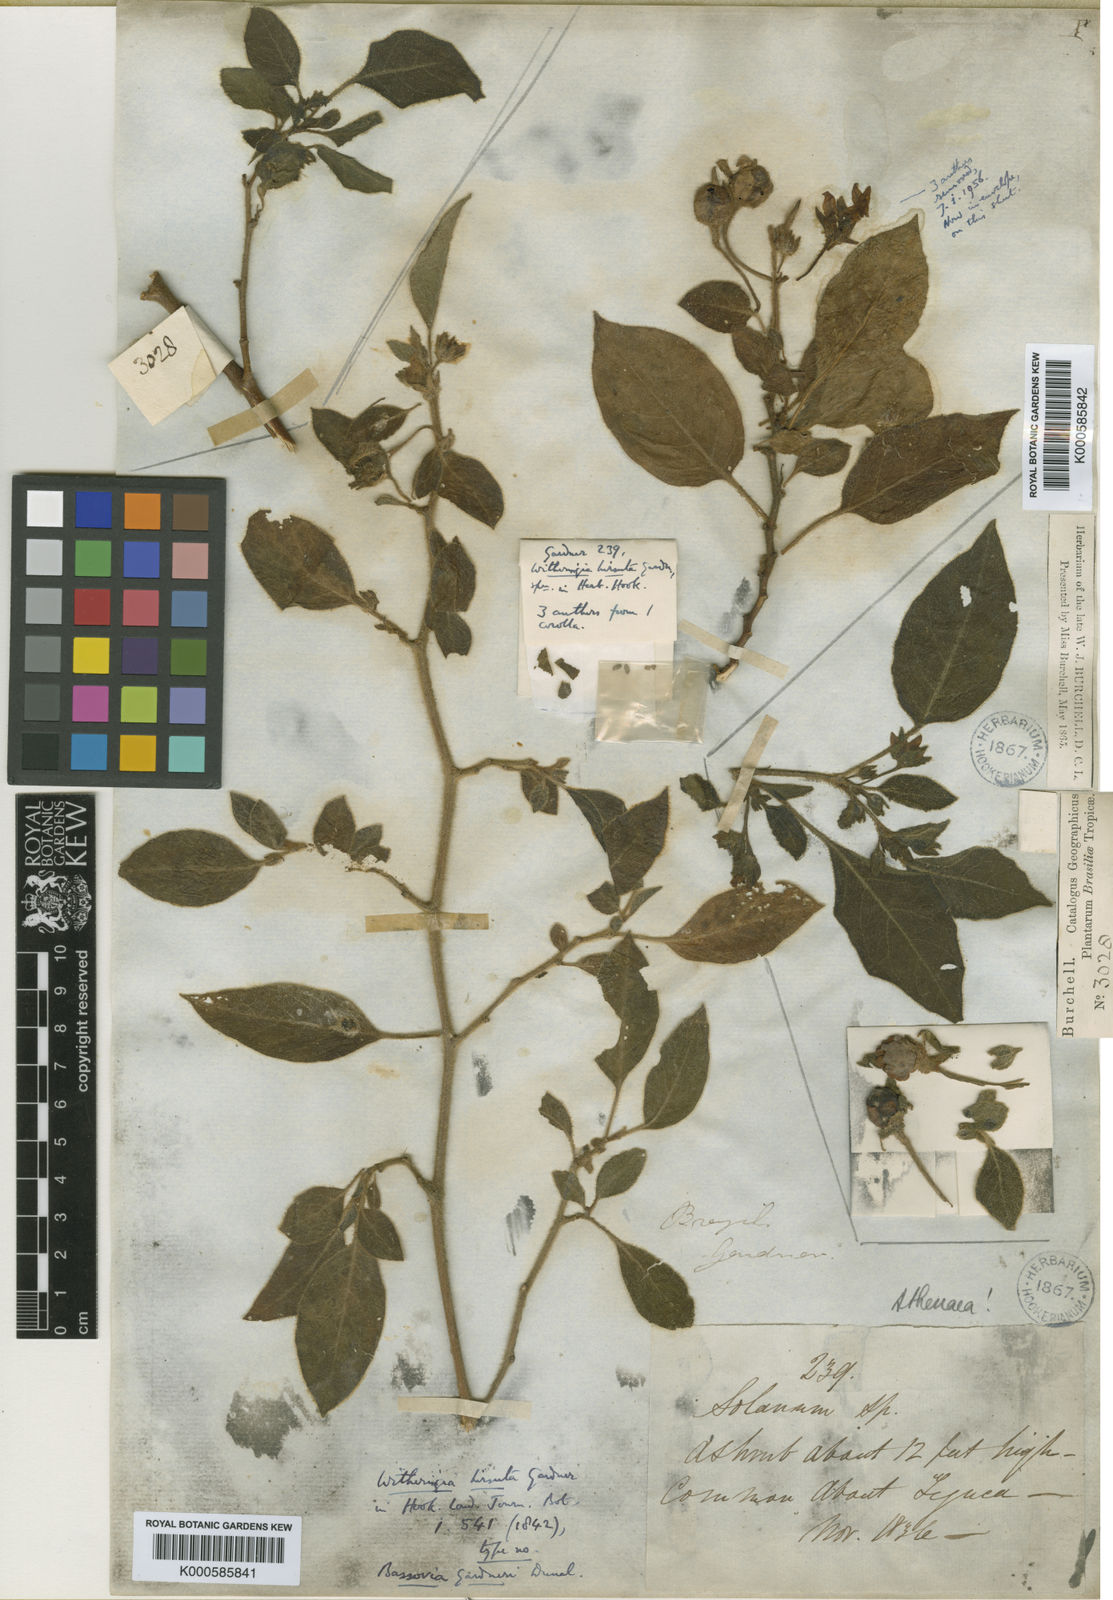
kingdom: Plantae
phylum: Tracheophyta
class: Magnoliopsida
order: Solanales
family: Solanaceae
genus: Athenaea
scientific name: Athenaea
